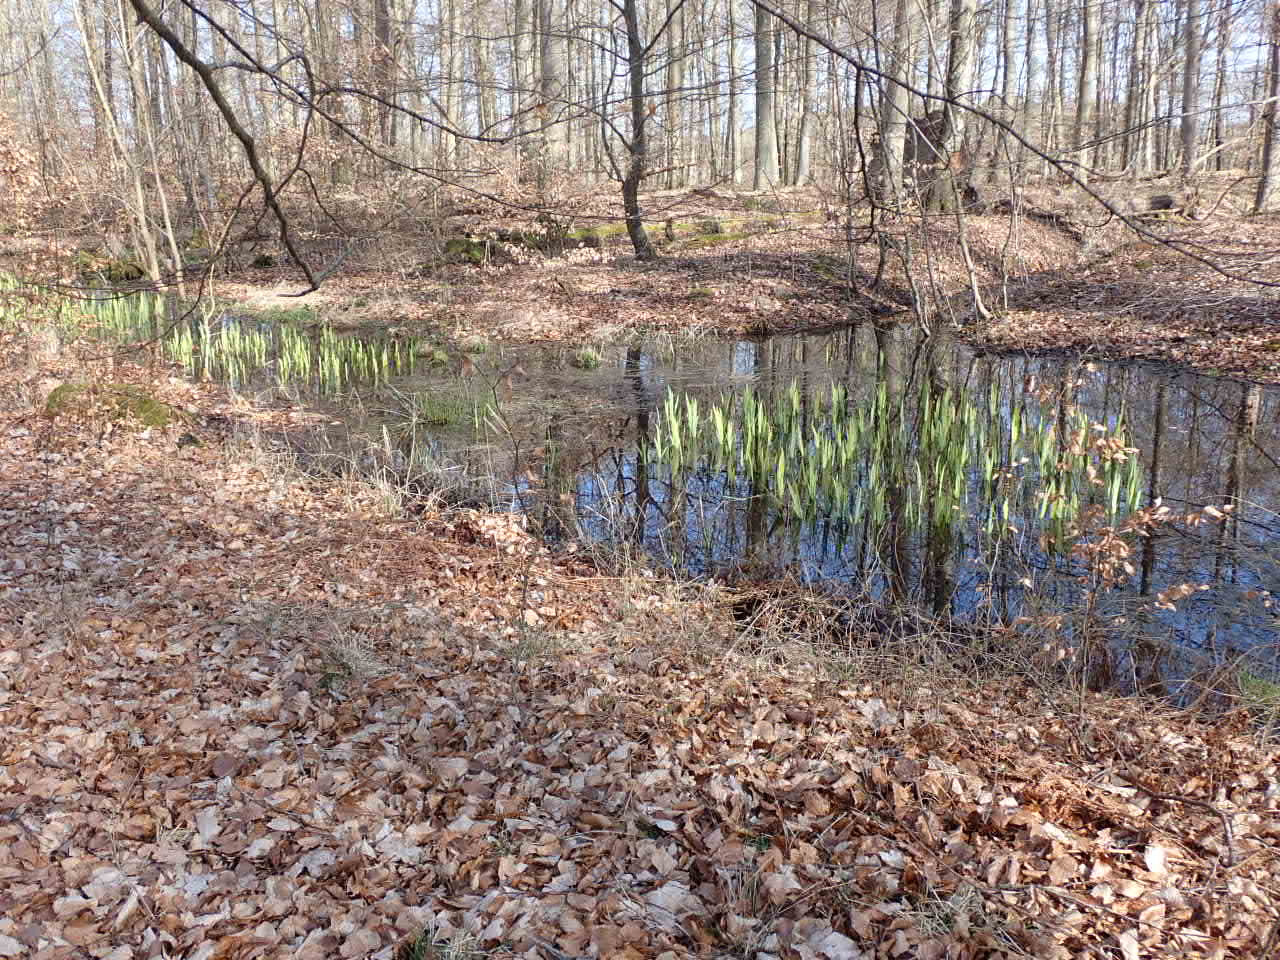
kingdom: Plantae
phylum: Tracheophyta
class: Liliopsida
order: Asparagales
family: Iridaceae
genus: Iris
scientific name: Iris pseudacorus
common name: Gul iris
